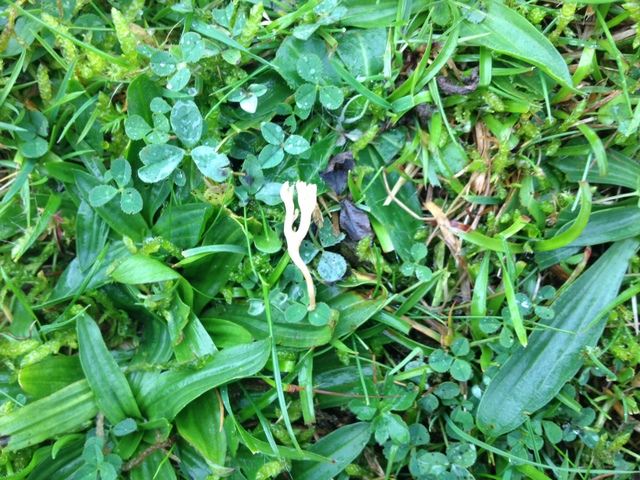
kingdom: Fungi
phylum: Basidiomycota
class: Agaricomycetes
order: Agaricales
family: Clavariaceae
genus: Ramariopsis
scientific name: Ramariopsis tenuicula
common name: spinkel køllesvamp
